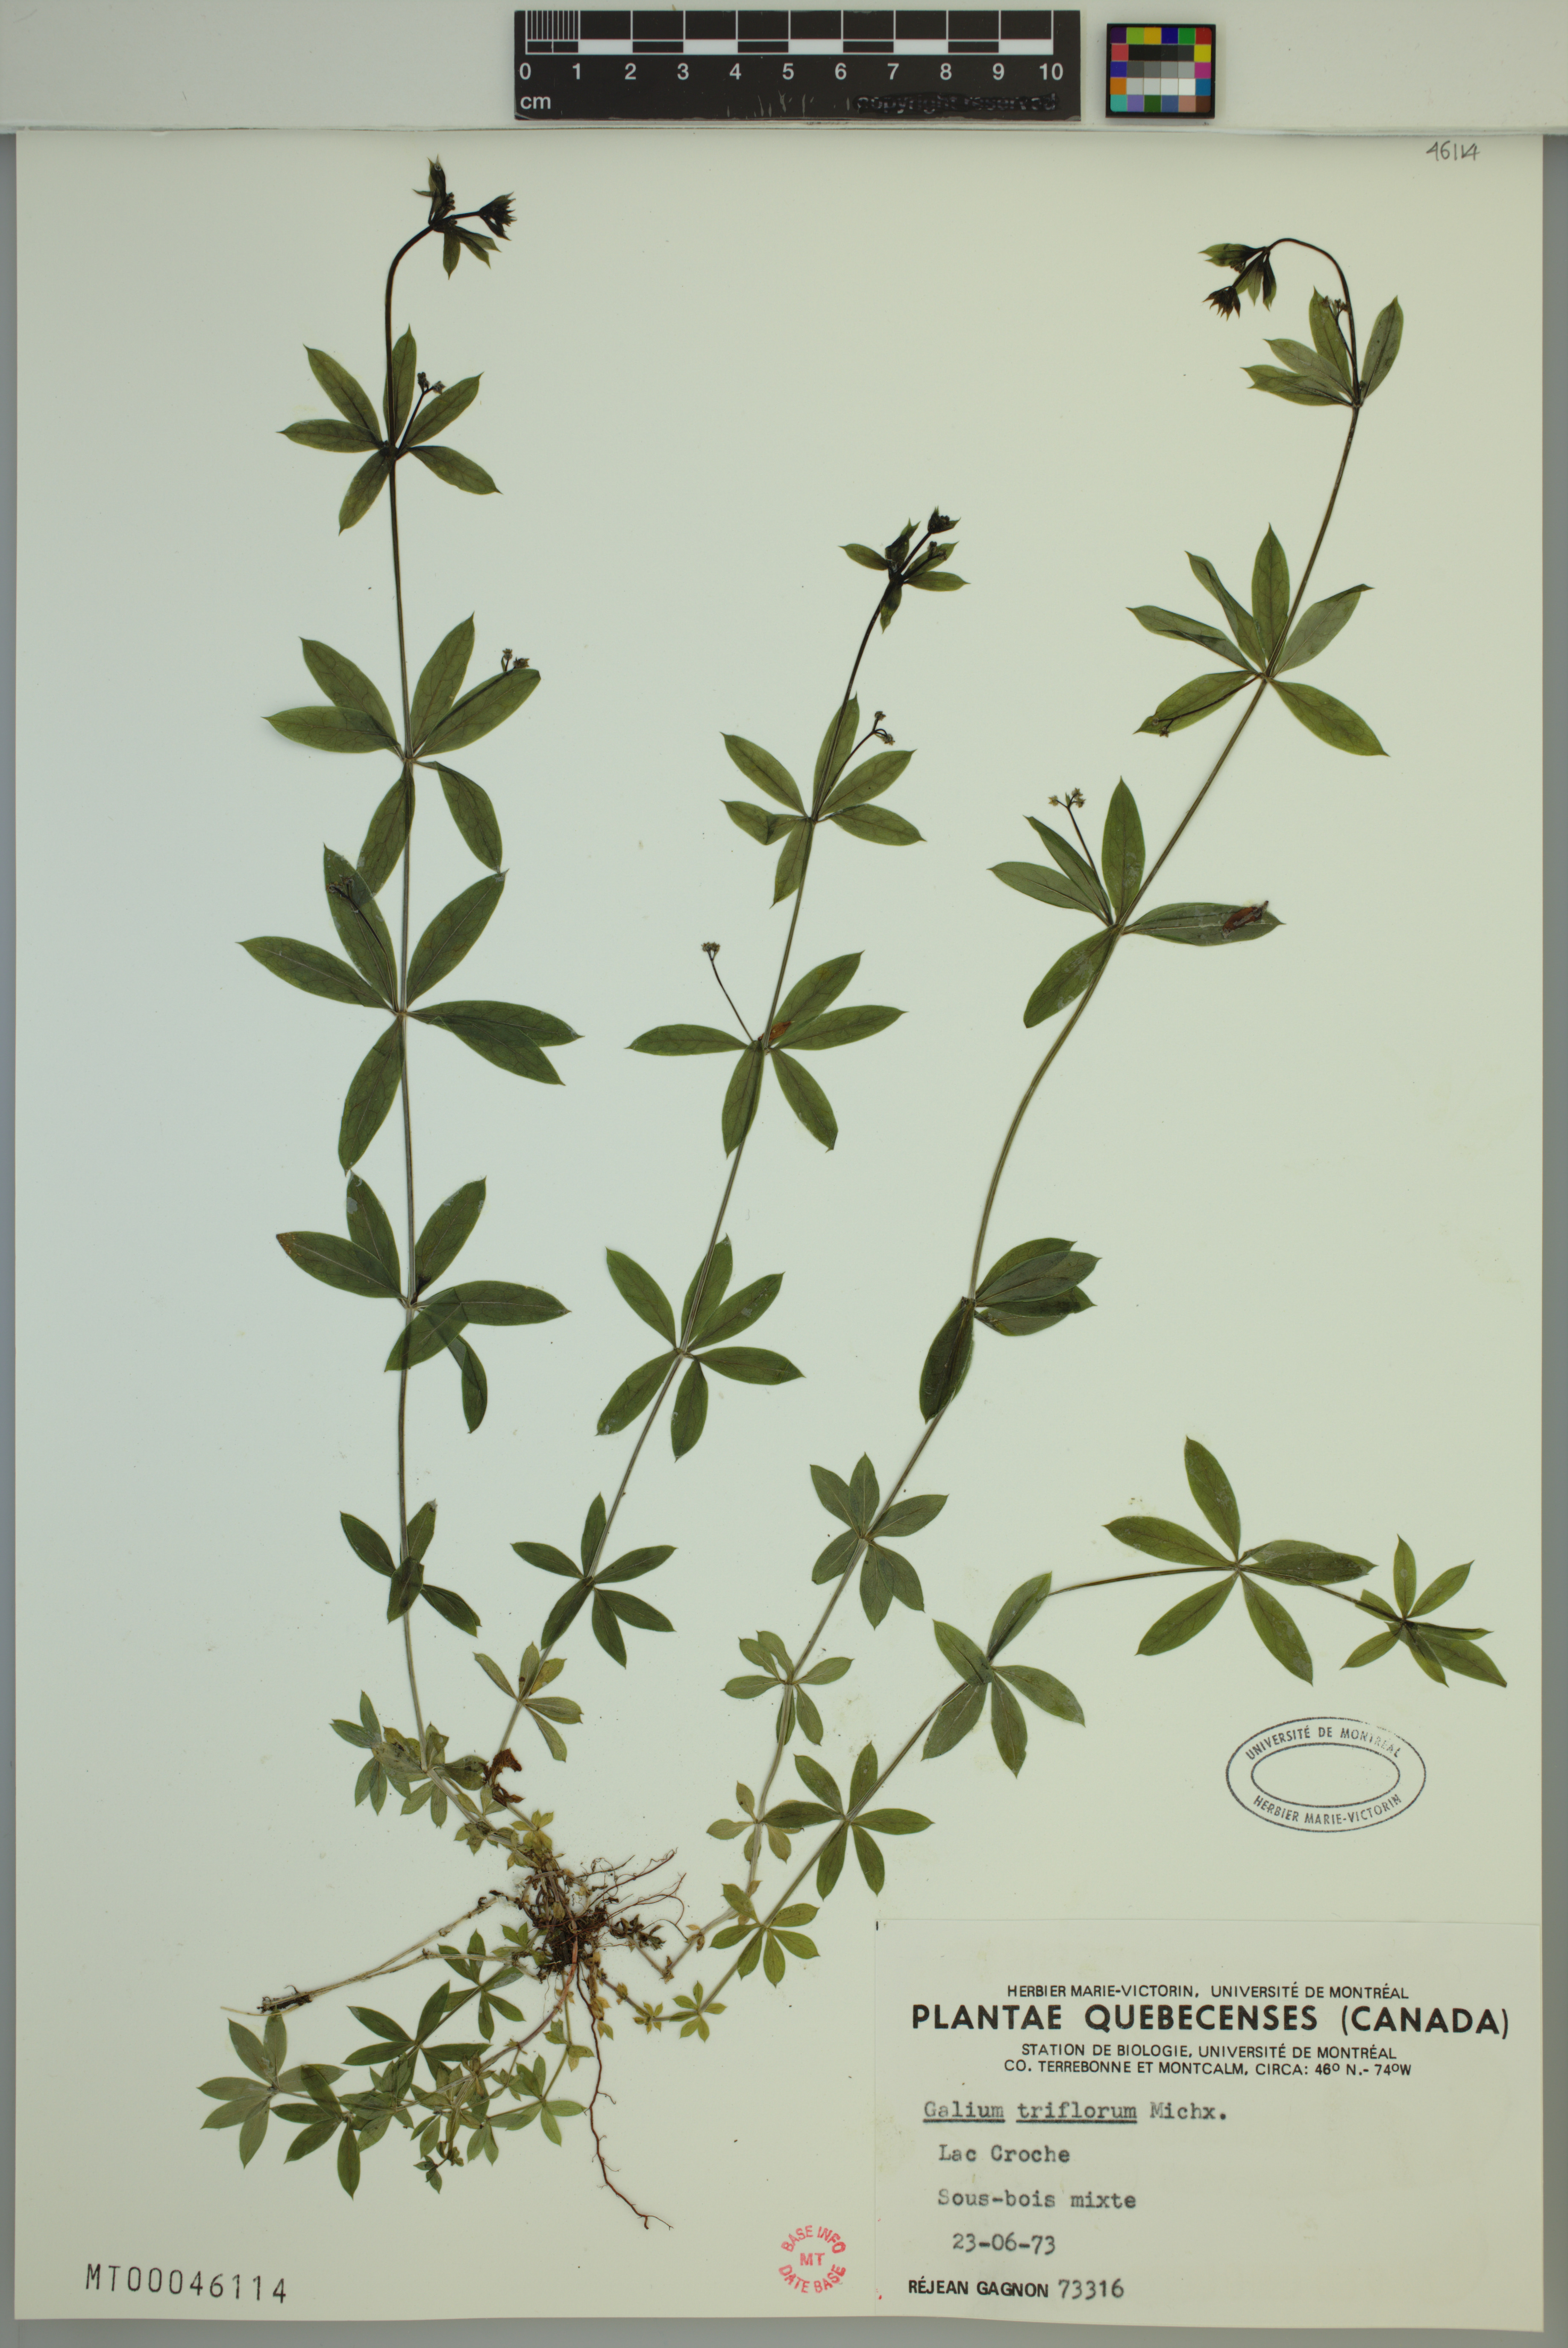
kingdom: Plantae
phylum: Tracheophyta
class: Magnoliopsida
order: Gentianales
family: Rubiaceae
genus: Galium
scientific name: Galium triflorum
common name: Fragrant bedstraw
